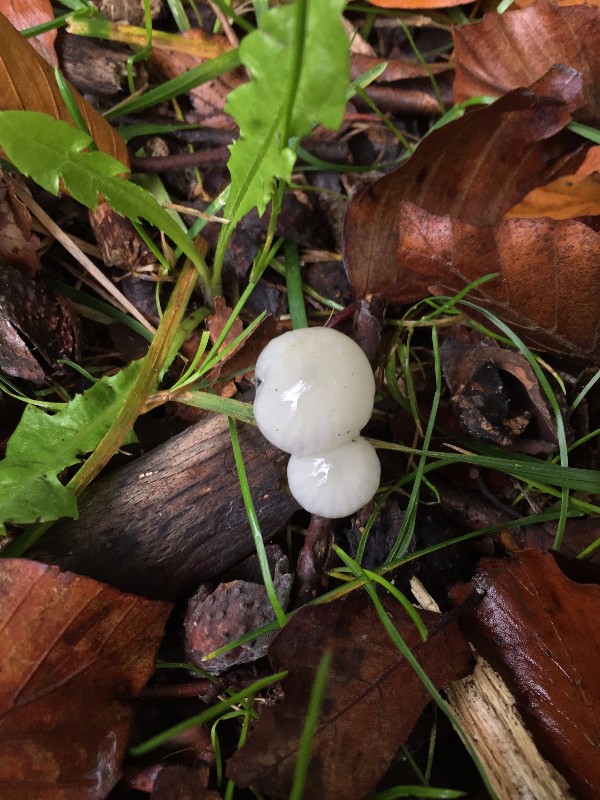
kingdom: Fungi
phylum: Basidiomycota
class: Agaricomycetes
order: Agaricales
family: Physalacriaceae
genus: Mucidula
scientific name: Mucidula mucida
